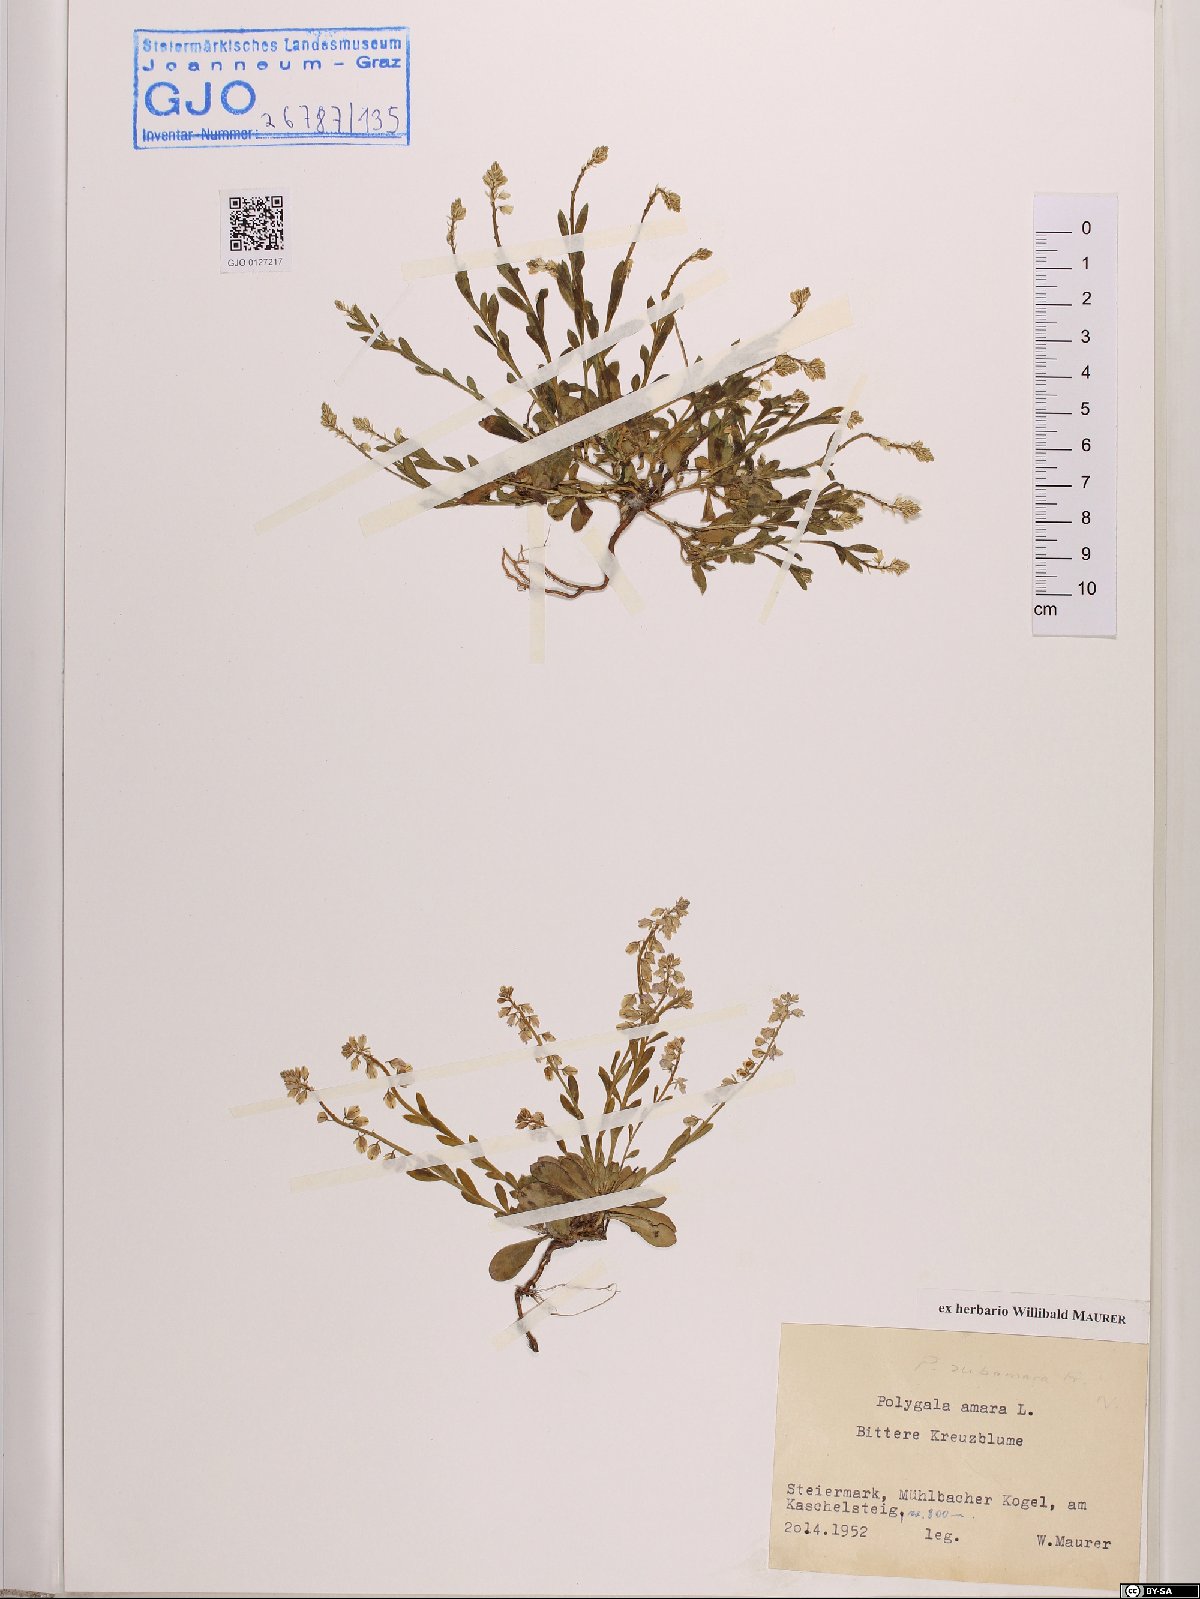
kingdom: Plantae
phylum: Tracheophyta
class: Magnoliopsida
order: Fabales
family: Polygalaceae
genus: Polygala
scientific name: Polygala amara
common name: Milkwort
